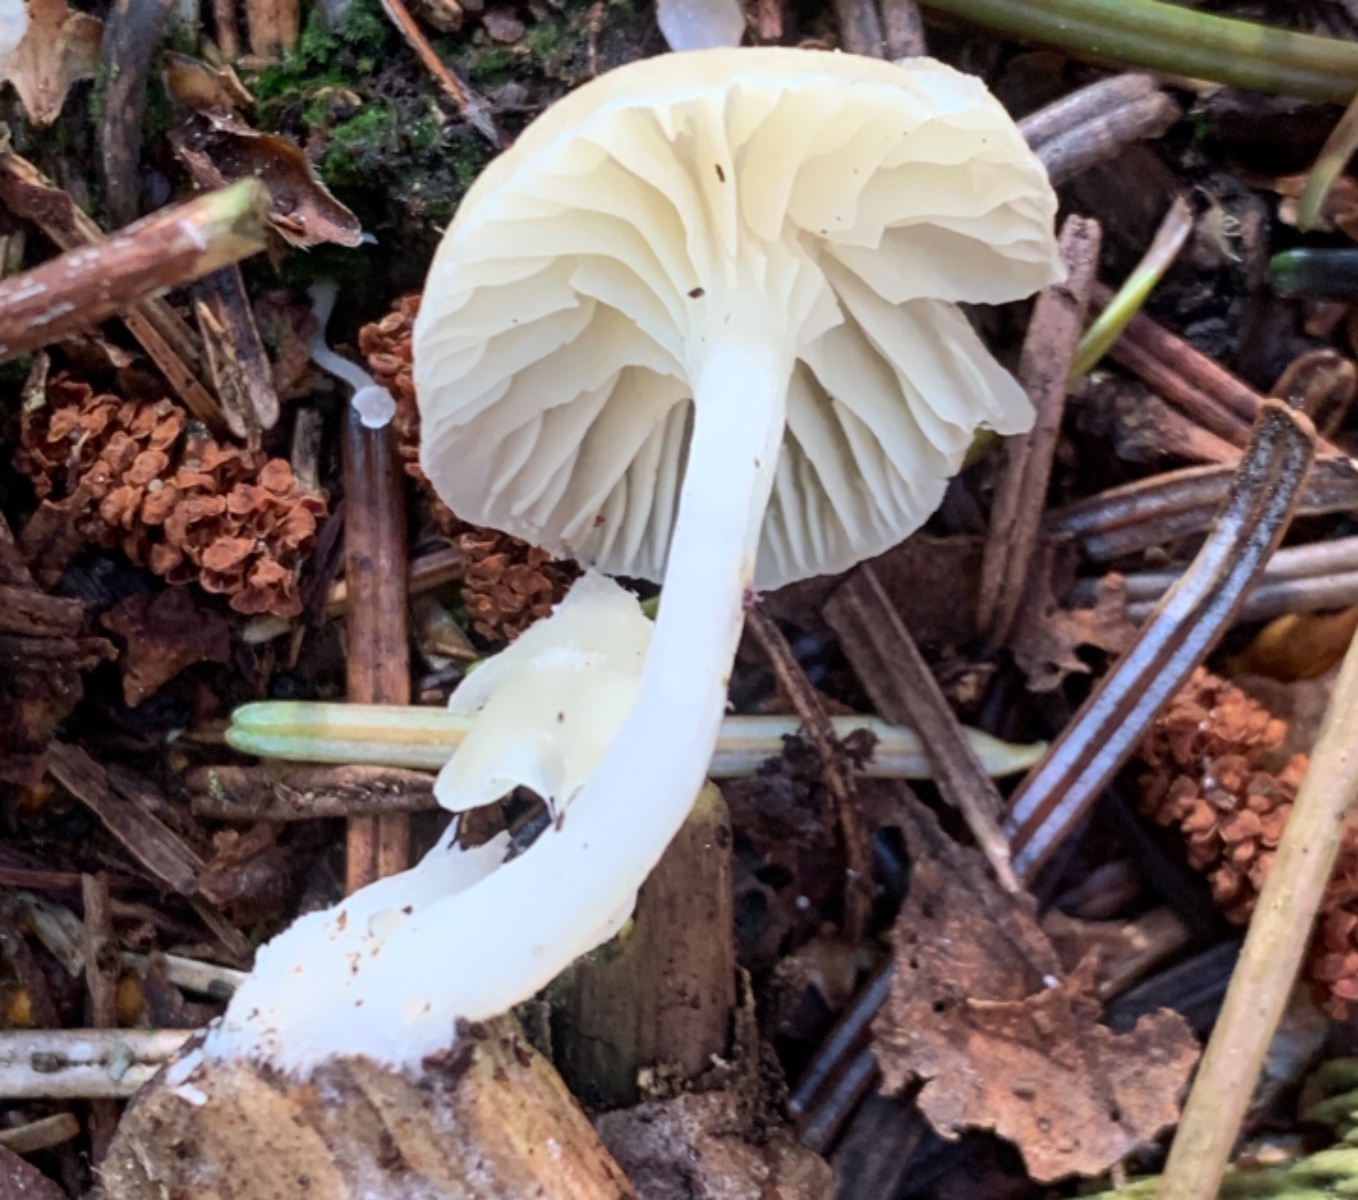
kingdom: Fungi
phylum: Basidiomycota
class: Agaricomycetes
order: Agaricales
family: Hygrophoraceae
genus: Chrysomphalina
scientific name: Chrysomphalina grossula
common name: stød-gyldenblad
